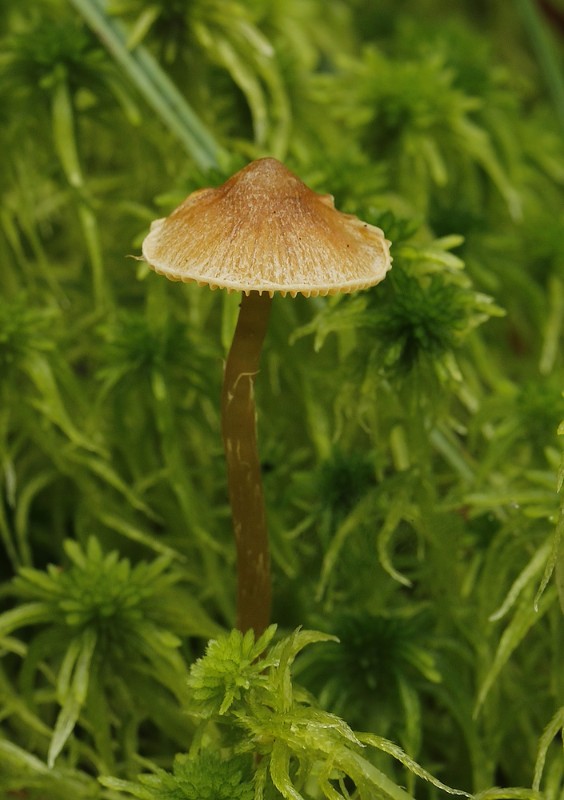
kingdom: Fungi
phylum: Basidiomycota
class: Agaricomycetes
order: Agaricales
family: Hymenogastraceae
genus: Galerina
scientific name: Galerina
